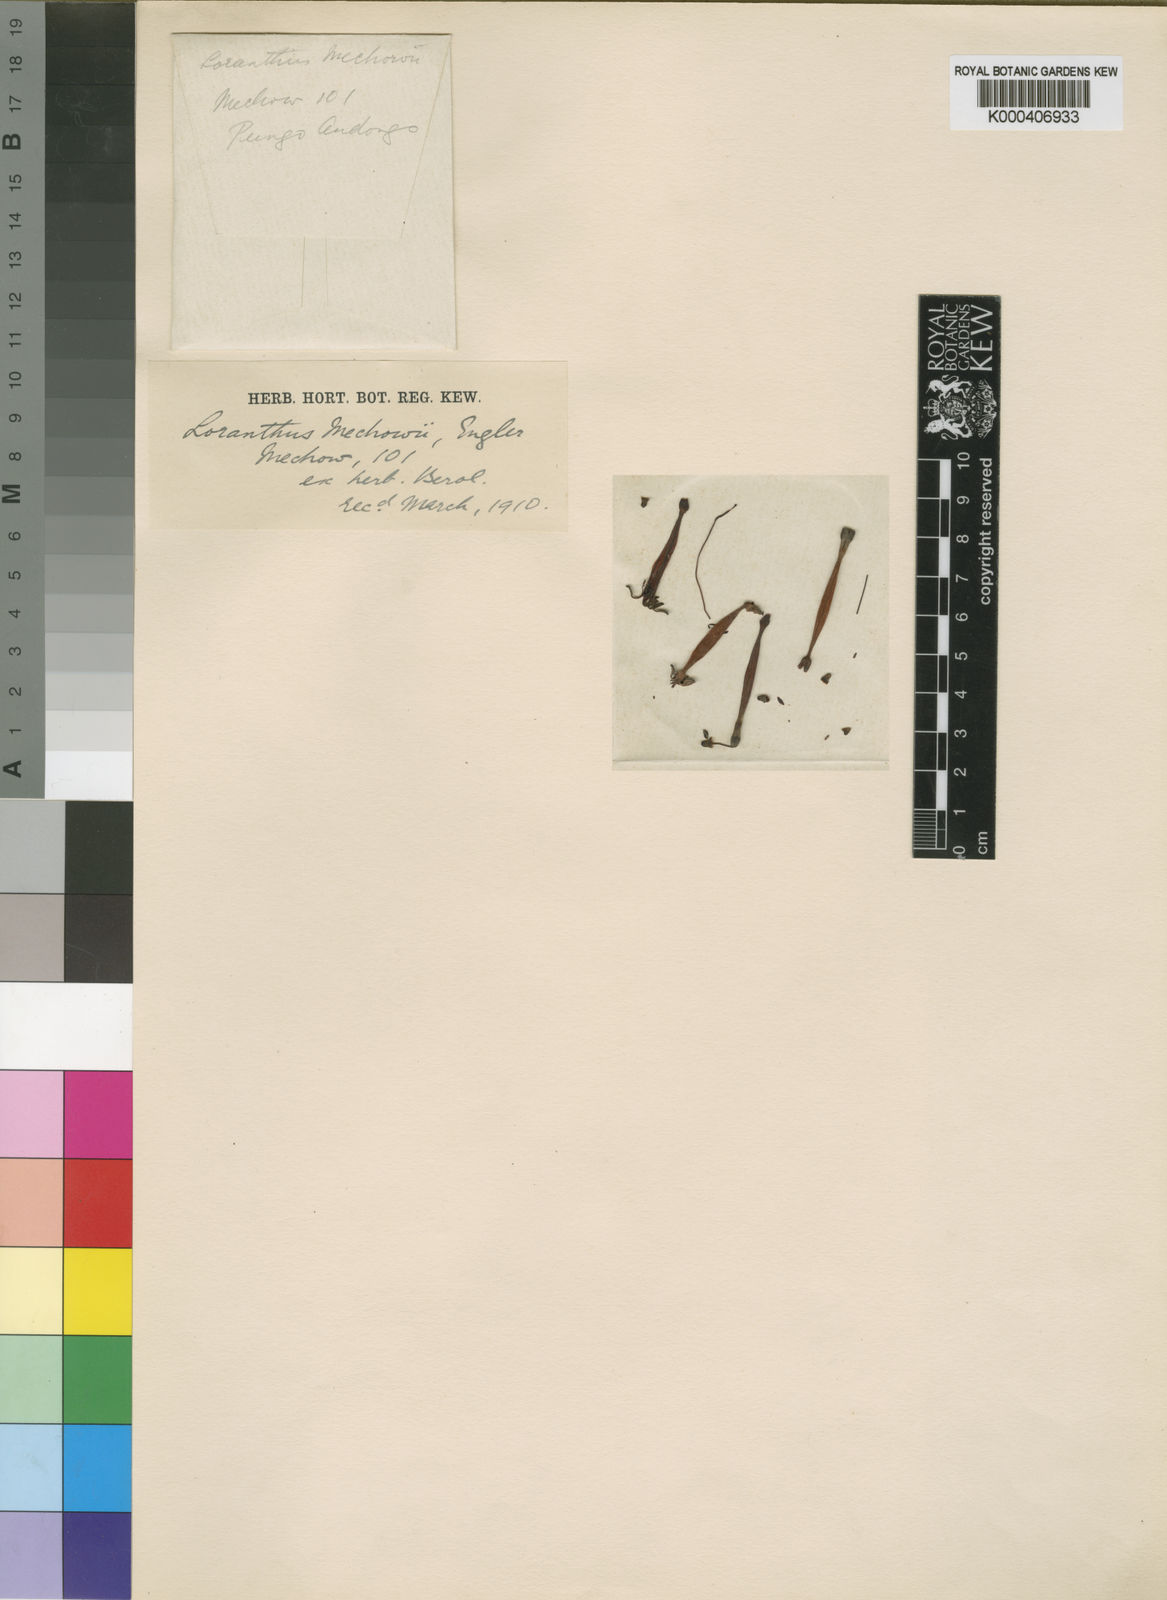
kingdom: Plantae
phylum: Tracheophyta
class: Magnoliopsida
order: Santalales
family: Loranthaceae
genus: Tapinanthus
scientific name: Tapinanthus mechowii
